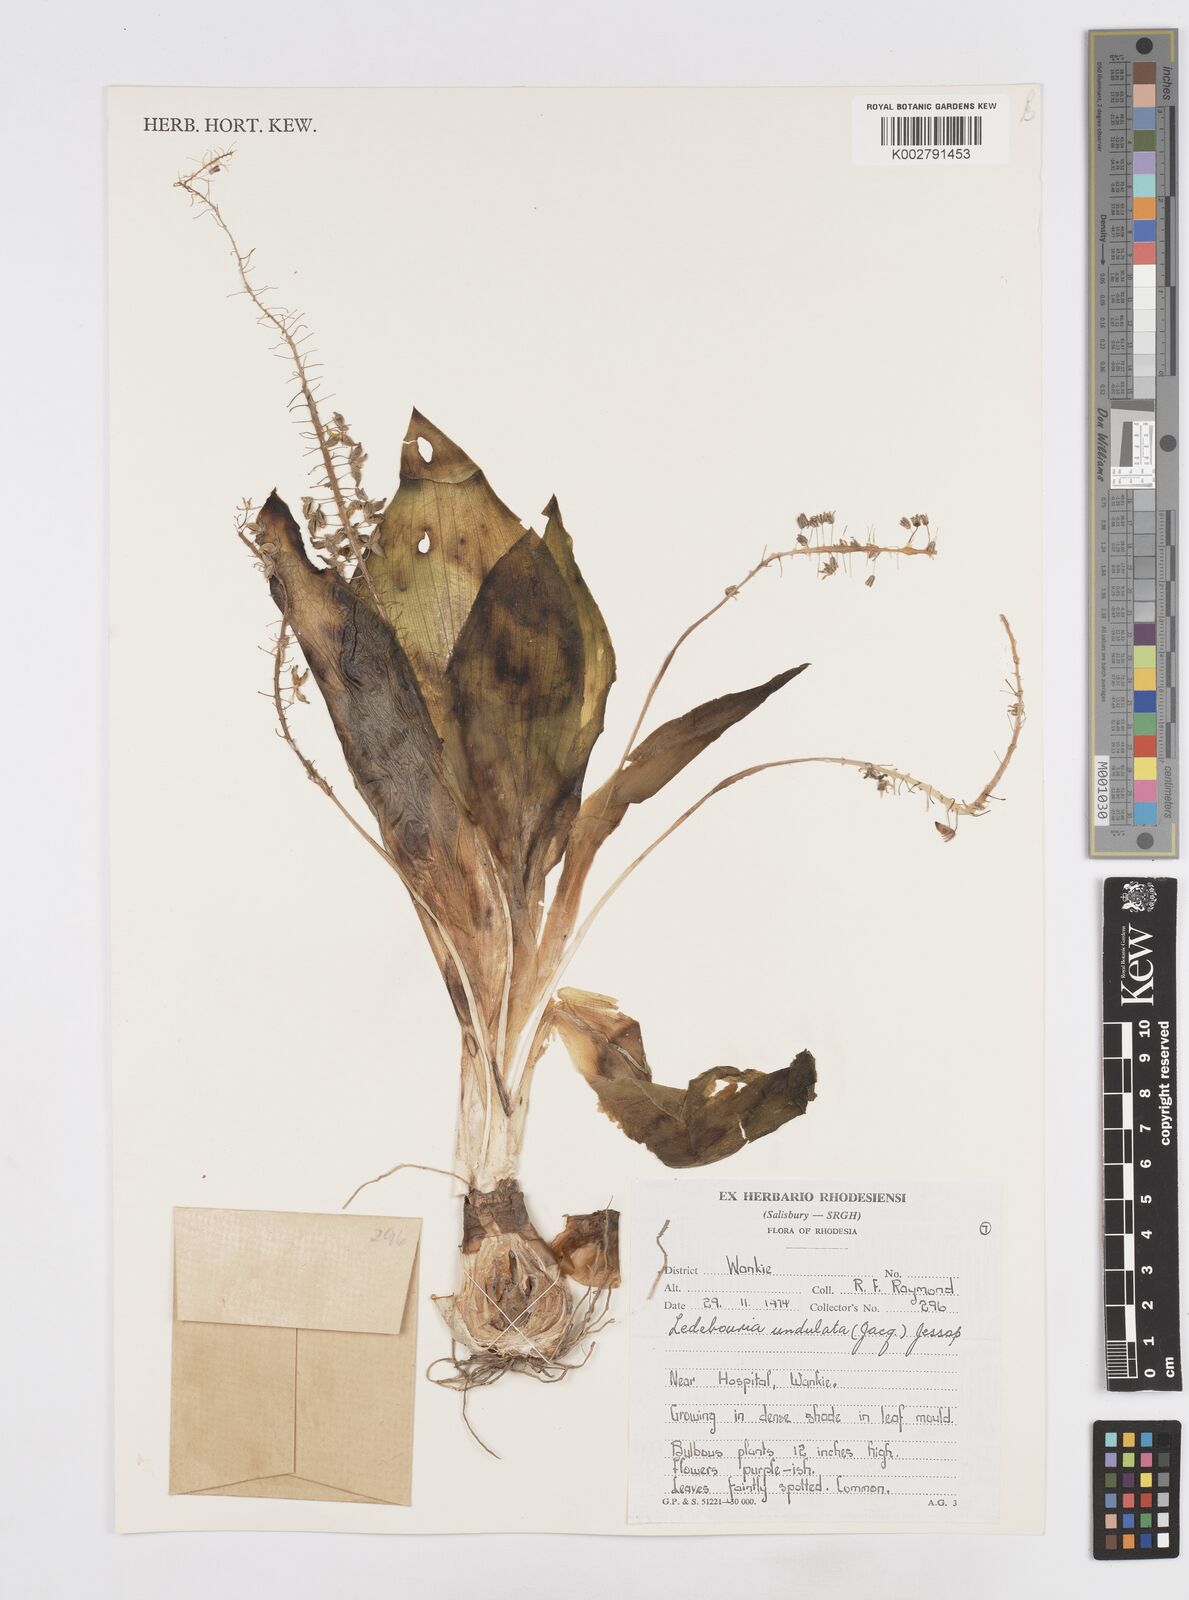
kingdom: Plantae
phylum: Tracheophyta
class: Liliopsida
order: Asparagales
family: Asparagaceae
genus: Ledebouria
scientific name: Ledebouria undulata
